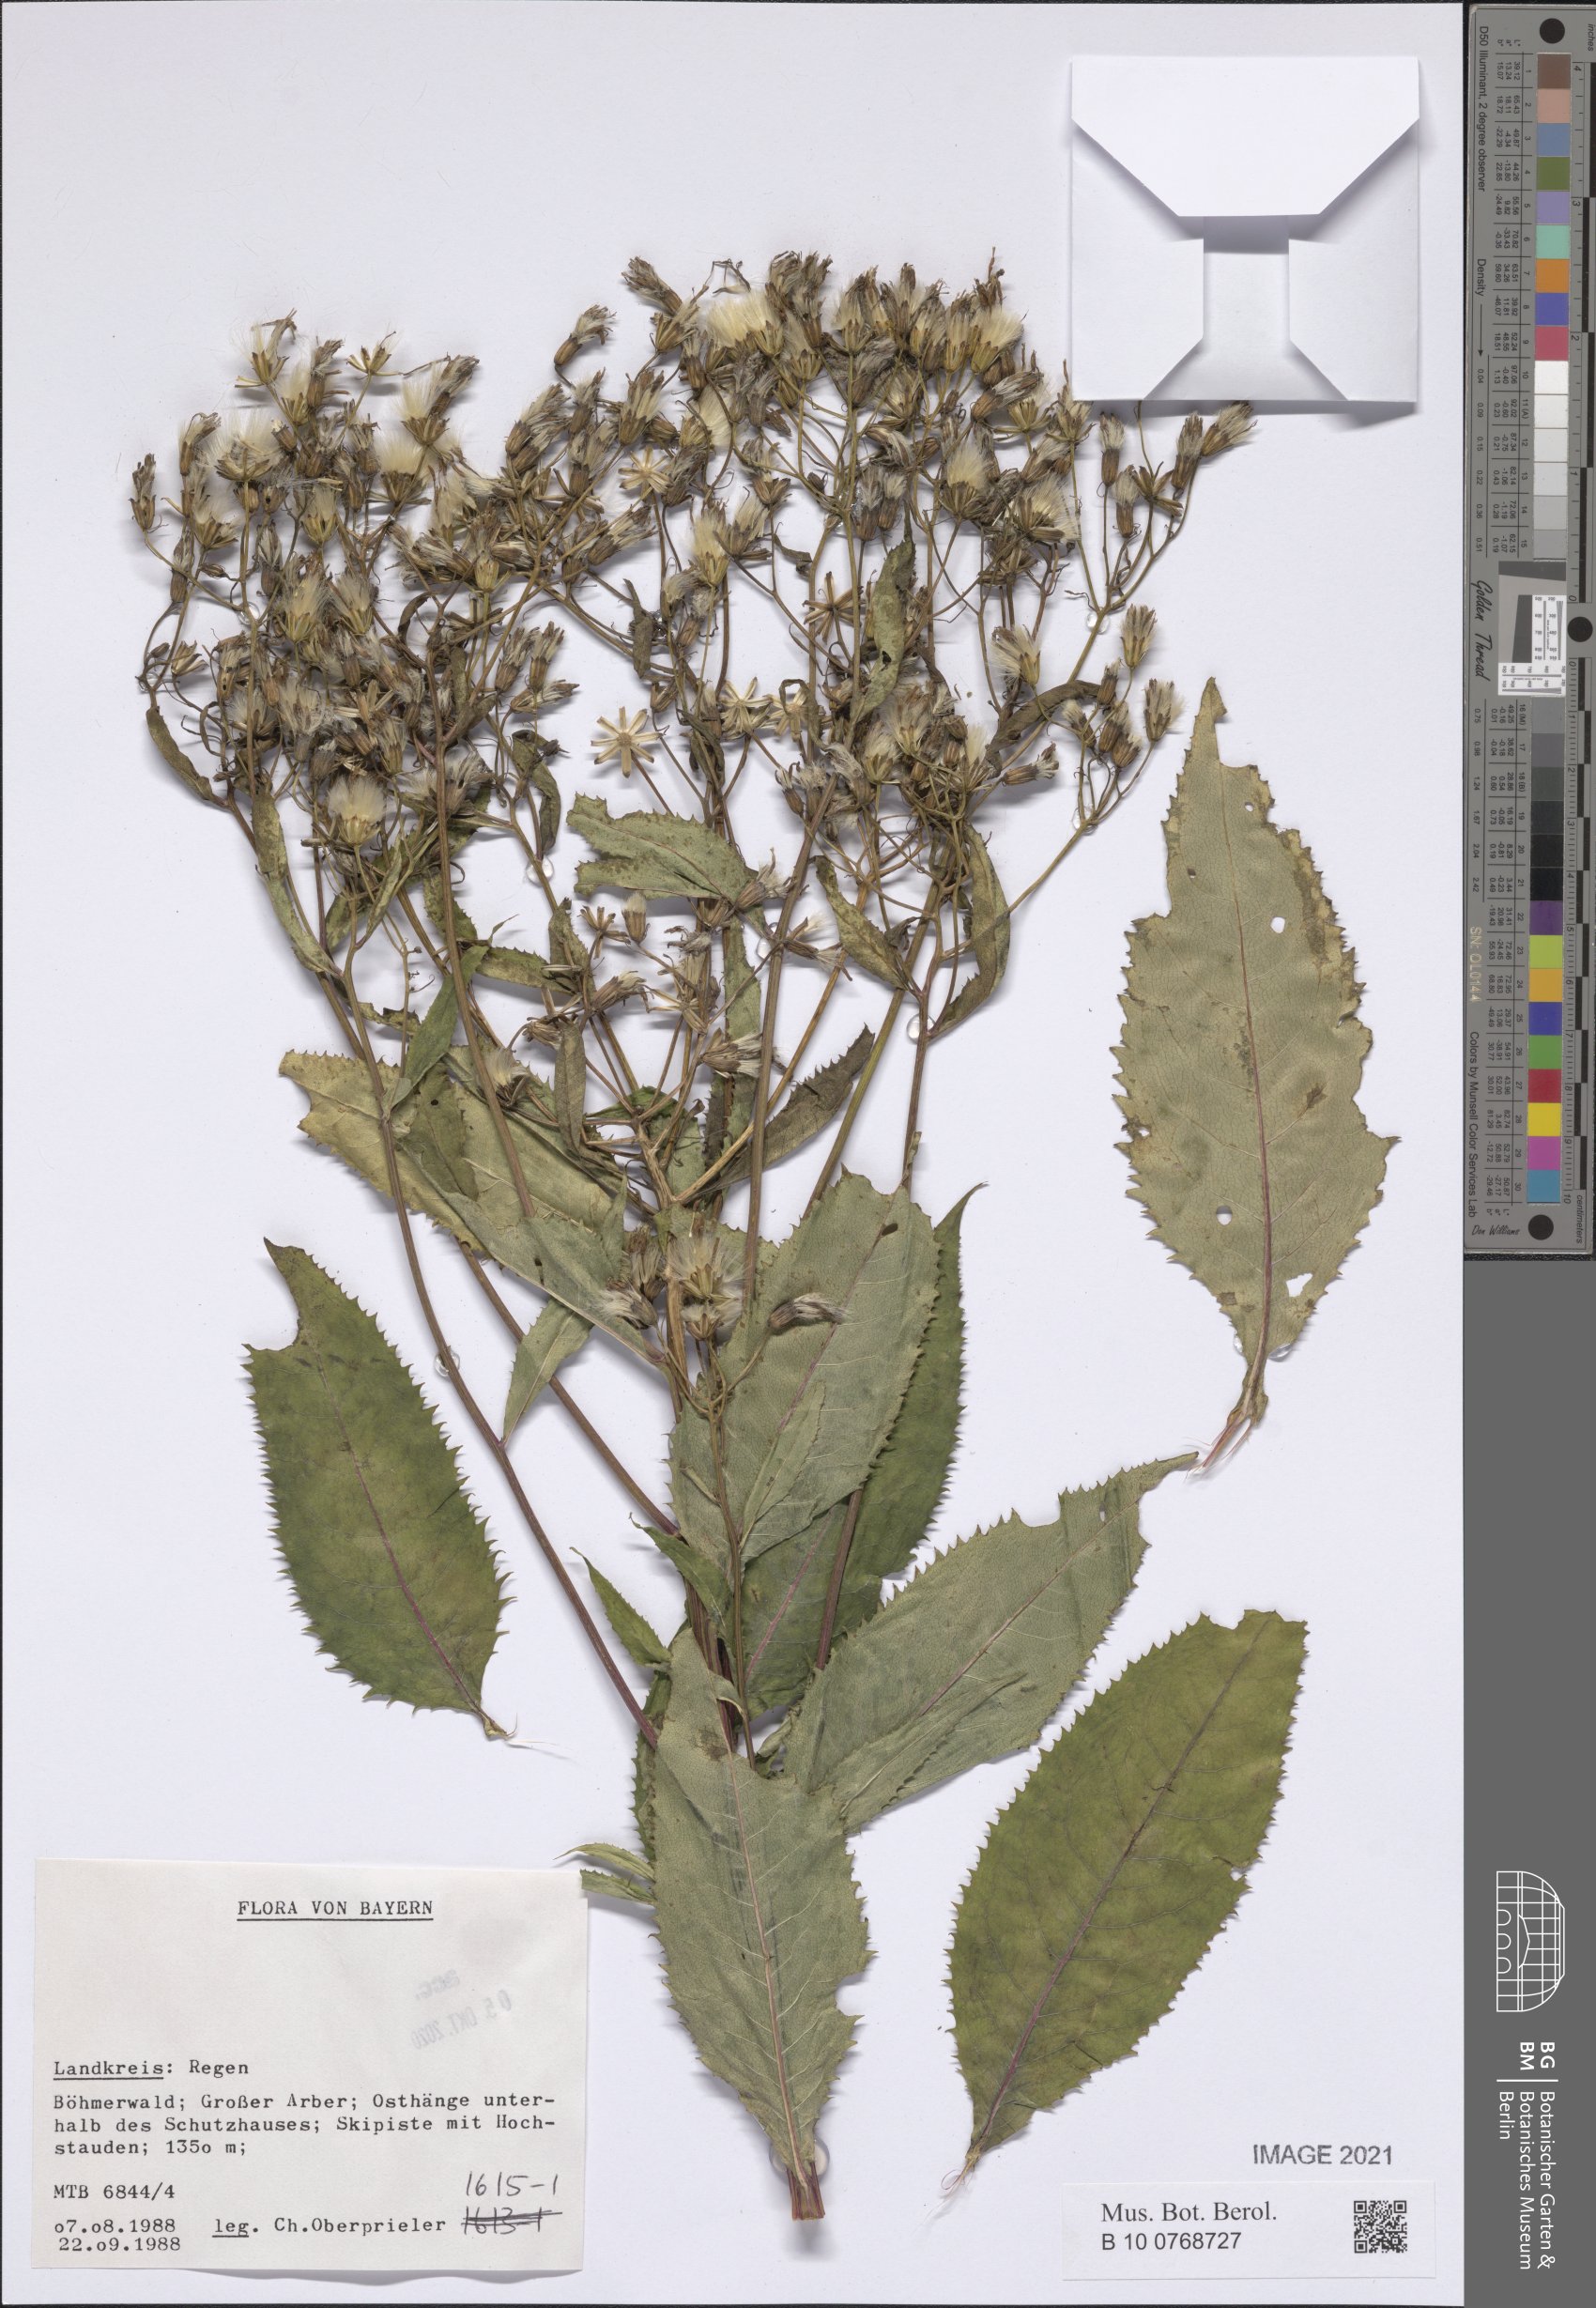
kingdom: Plantae
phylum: Tracheophyta
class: Magnoliopsida
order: Asterales
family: Asteraceae
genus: Senecio
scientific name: Senecio
